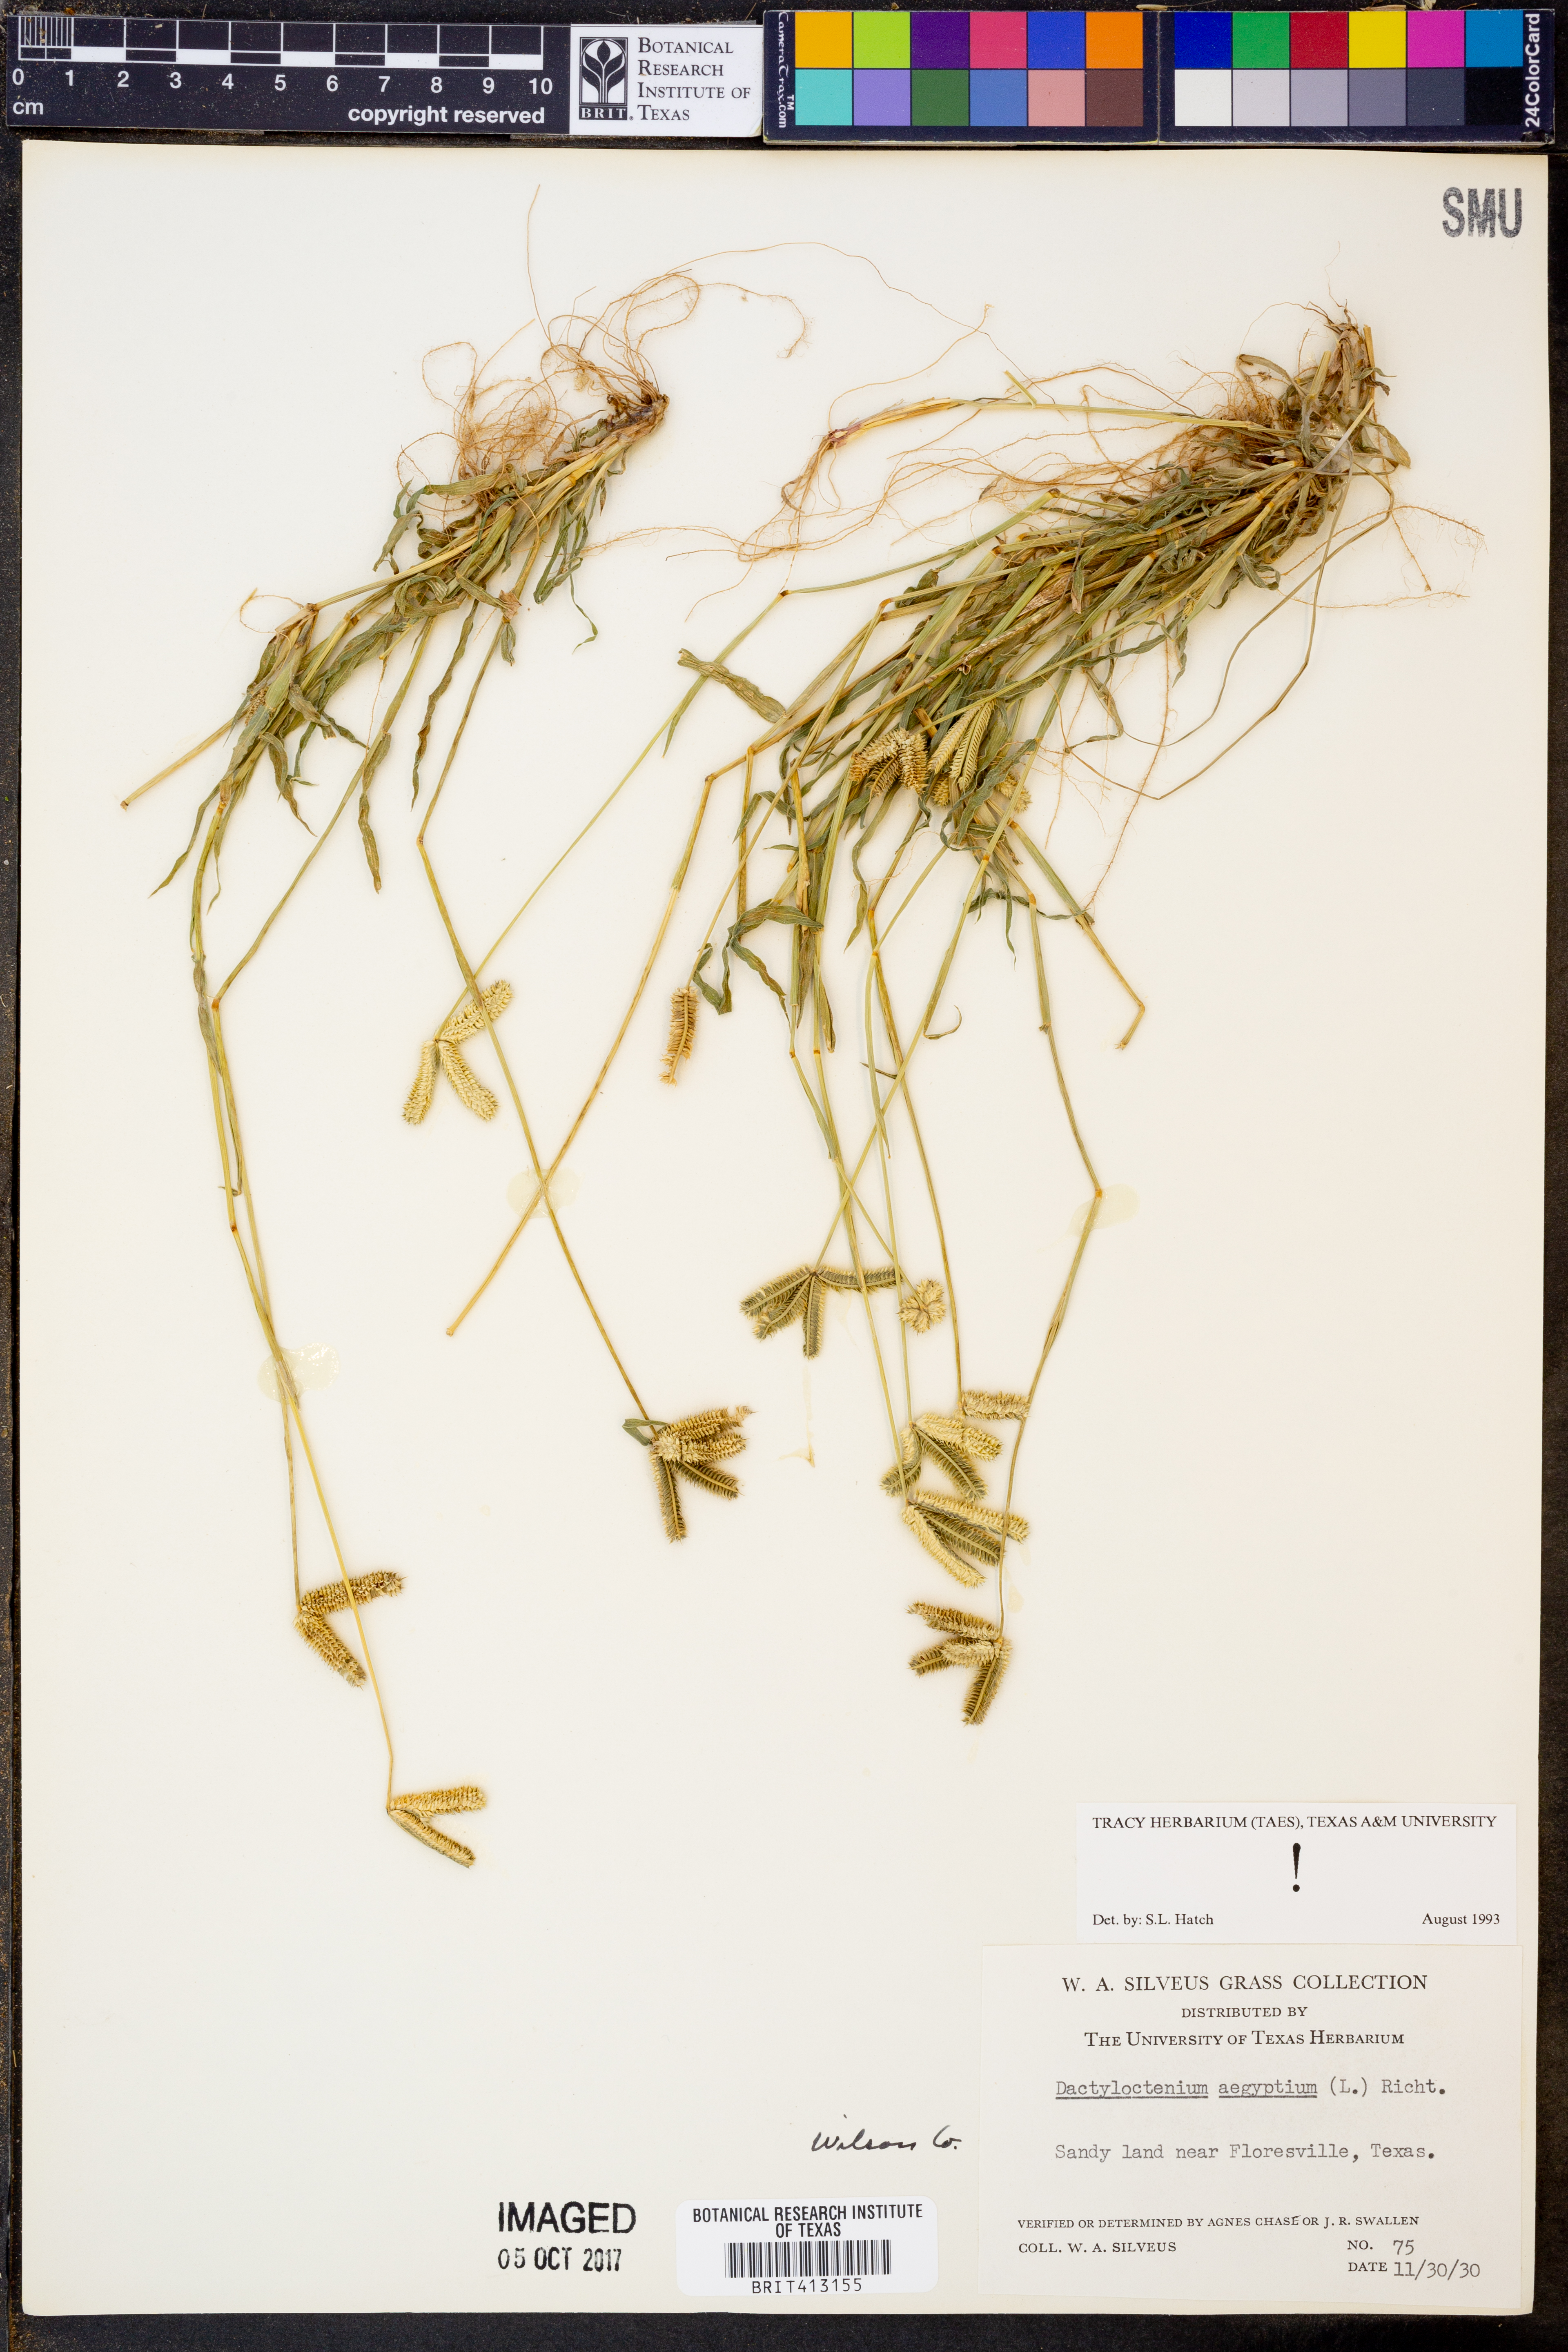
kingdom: Plantae
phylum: Tracheophyta
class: Liliopsida
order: Poales
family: Poaceae
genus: Dactyloctenium
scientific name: Dactyloctenium aegyptium
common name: Egyptian grass
